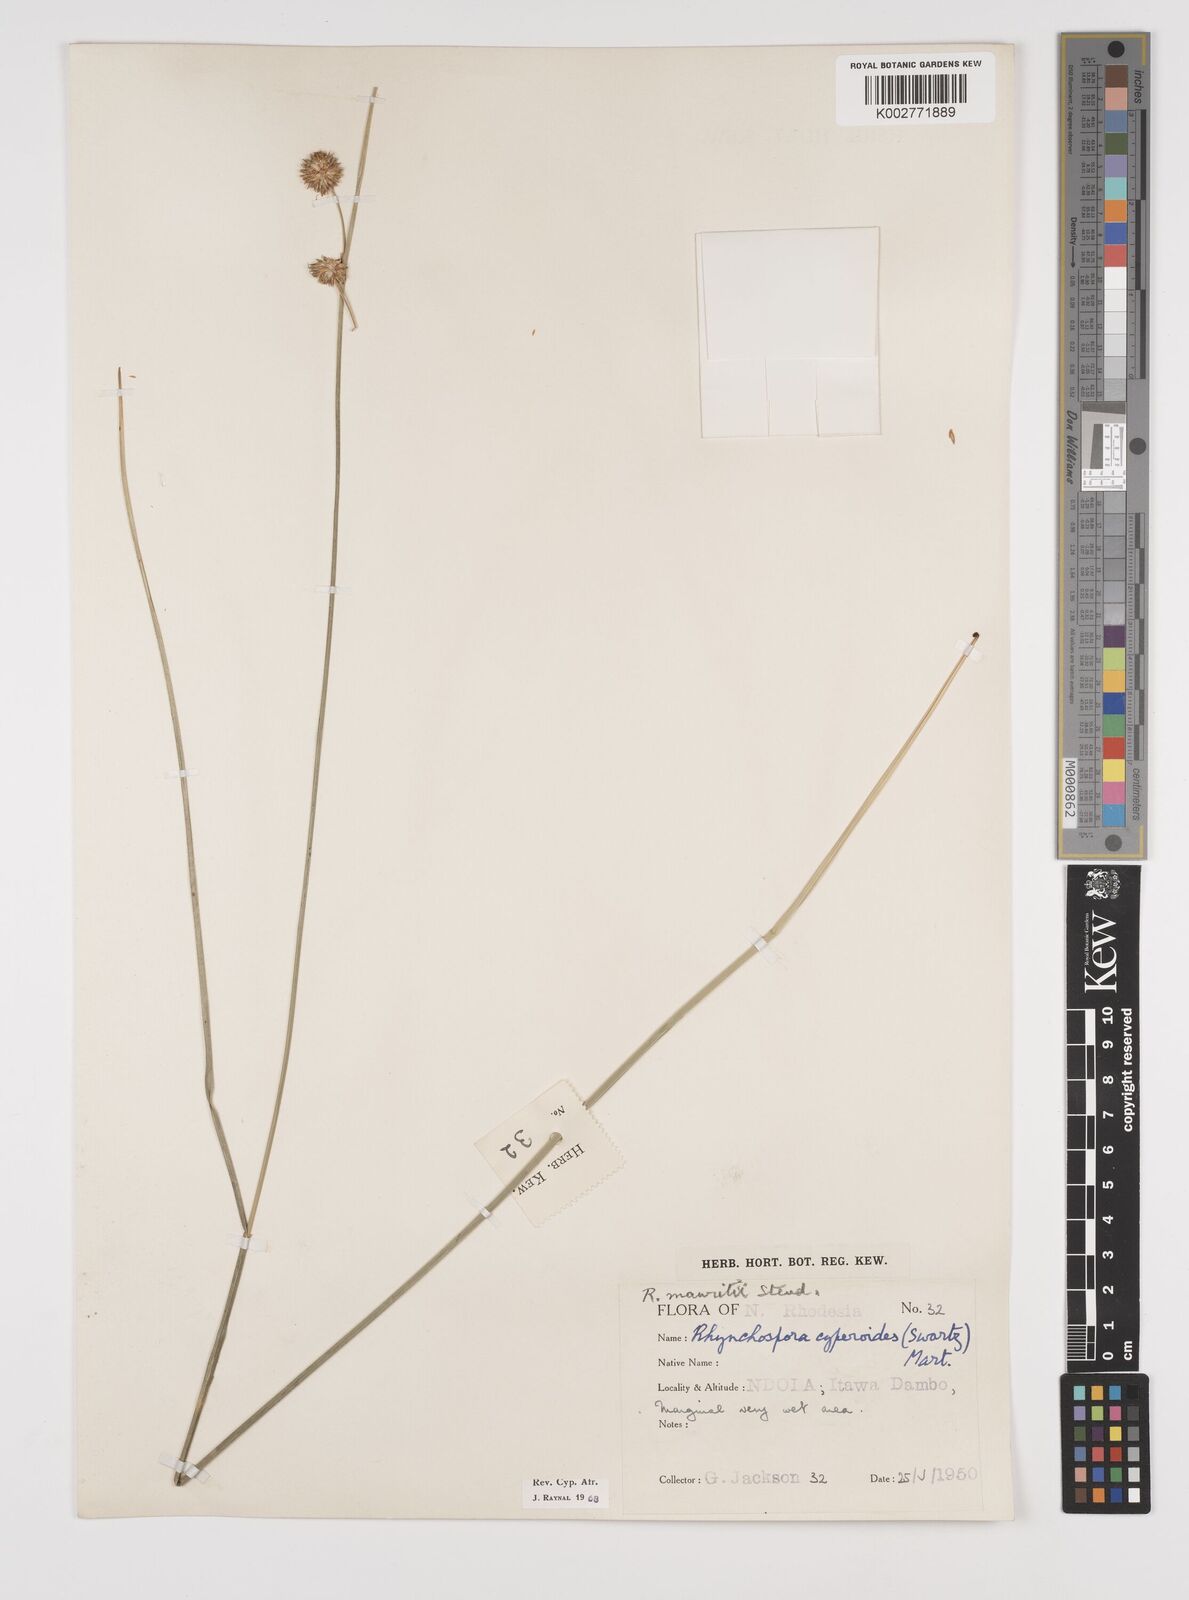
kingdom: Plantae
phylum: Tracheophyta
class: Liliopsida
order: Poales
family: Cyperaceae
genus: Rhynchospora
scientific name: Rhynchospora holoschoenoides
